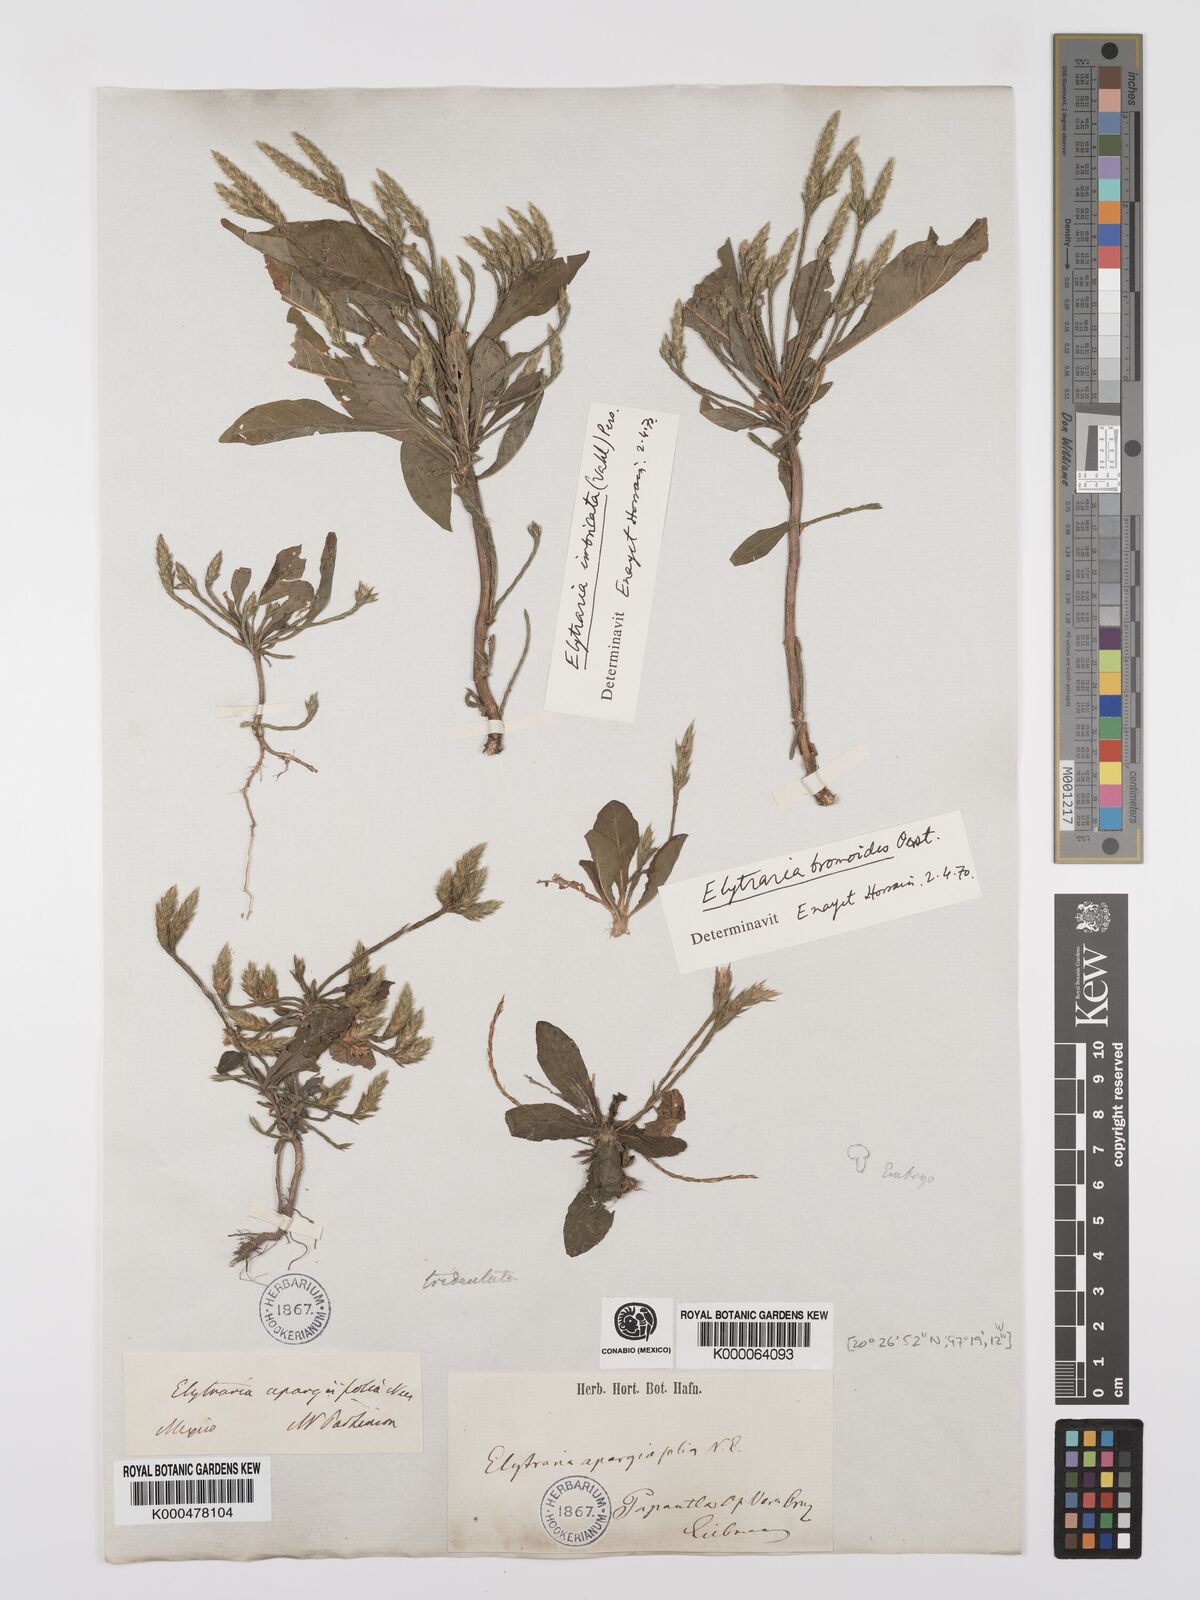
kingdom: Plantae
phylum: Tracheophyta
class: Magnoliopsida
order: Lamiales
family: Acanthaceae
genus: Elytraria
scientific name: Elytraria imbricata
